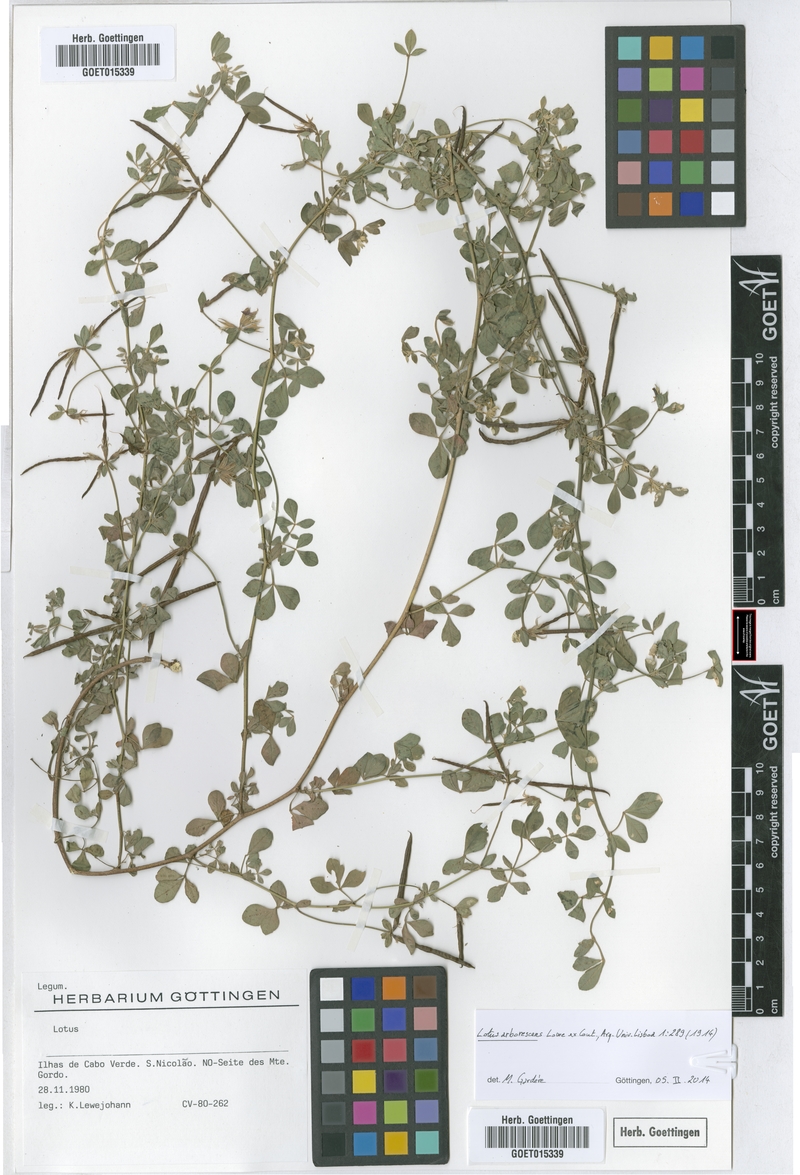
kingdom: Plantae
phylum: Tracheophyta
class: Magnoliopsida
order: Fabales
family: Fabaceae
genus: Lotus
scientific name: Lotus purpureus
